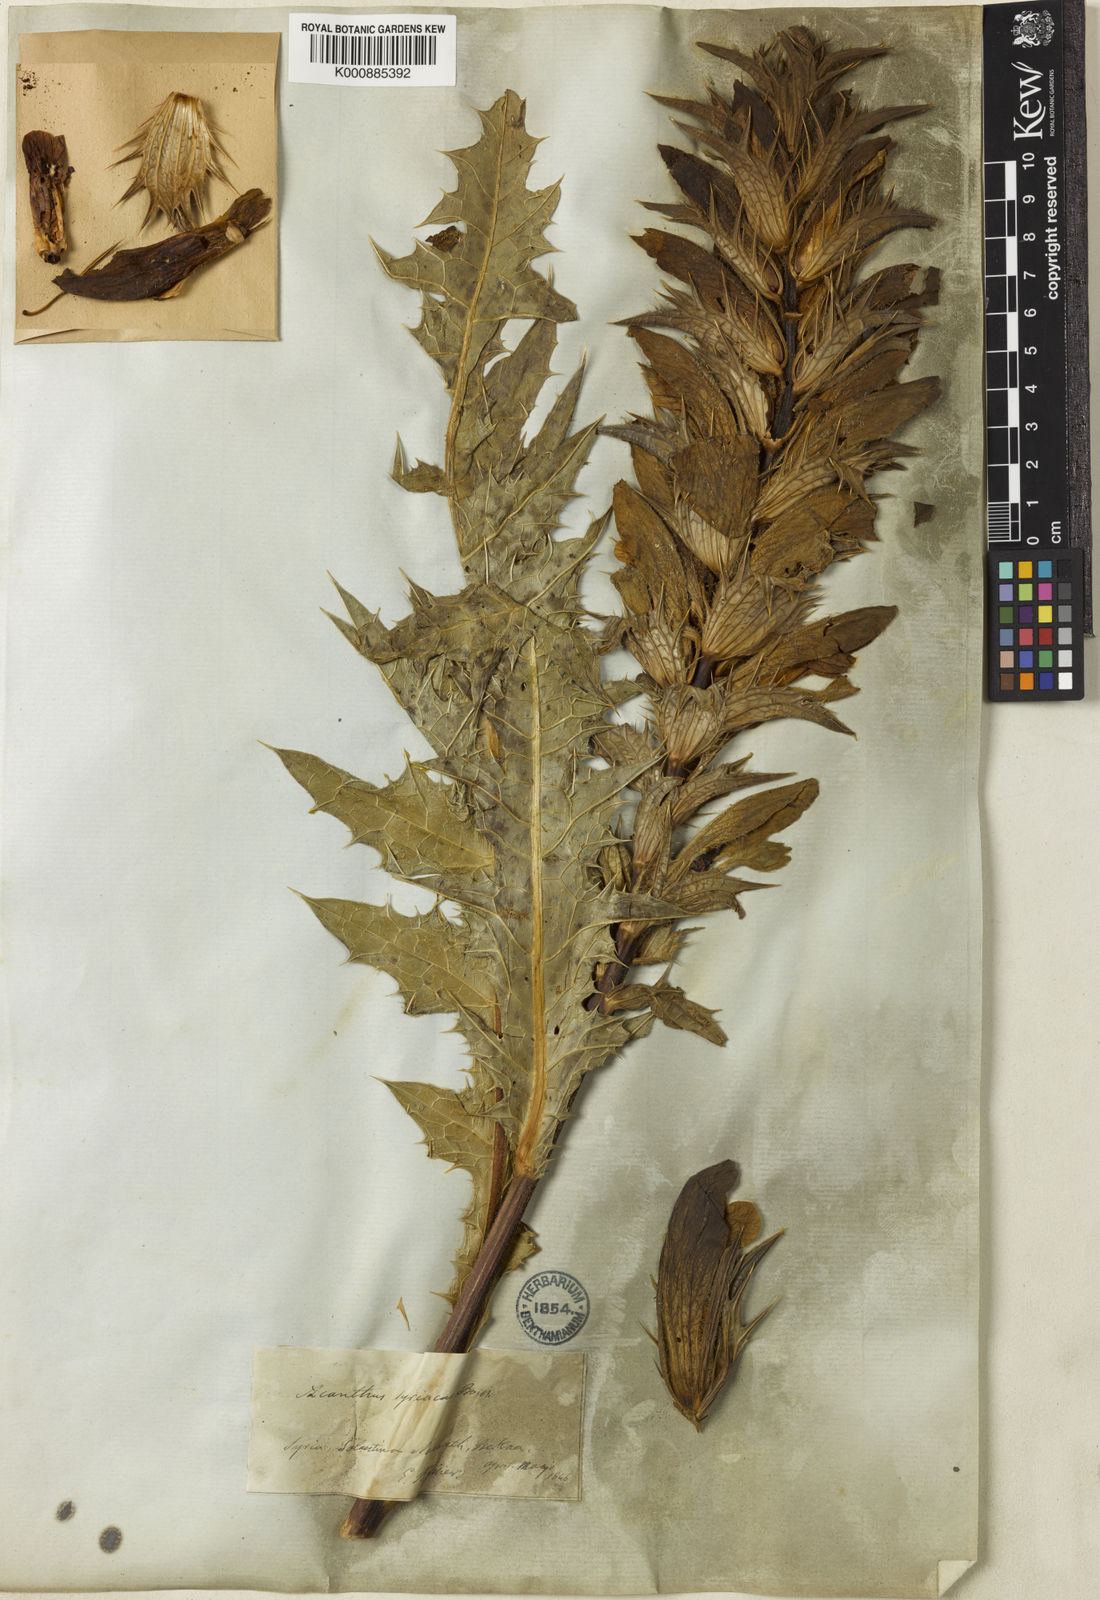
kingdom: Plantae
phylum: Tracheophyta
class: Magnoliopsida
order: Lamiales
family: Acanthaceae
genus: Acanthus
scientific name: Acanthus hirsutus
